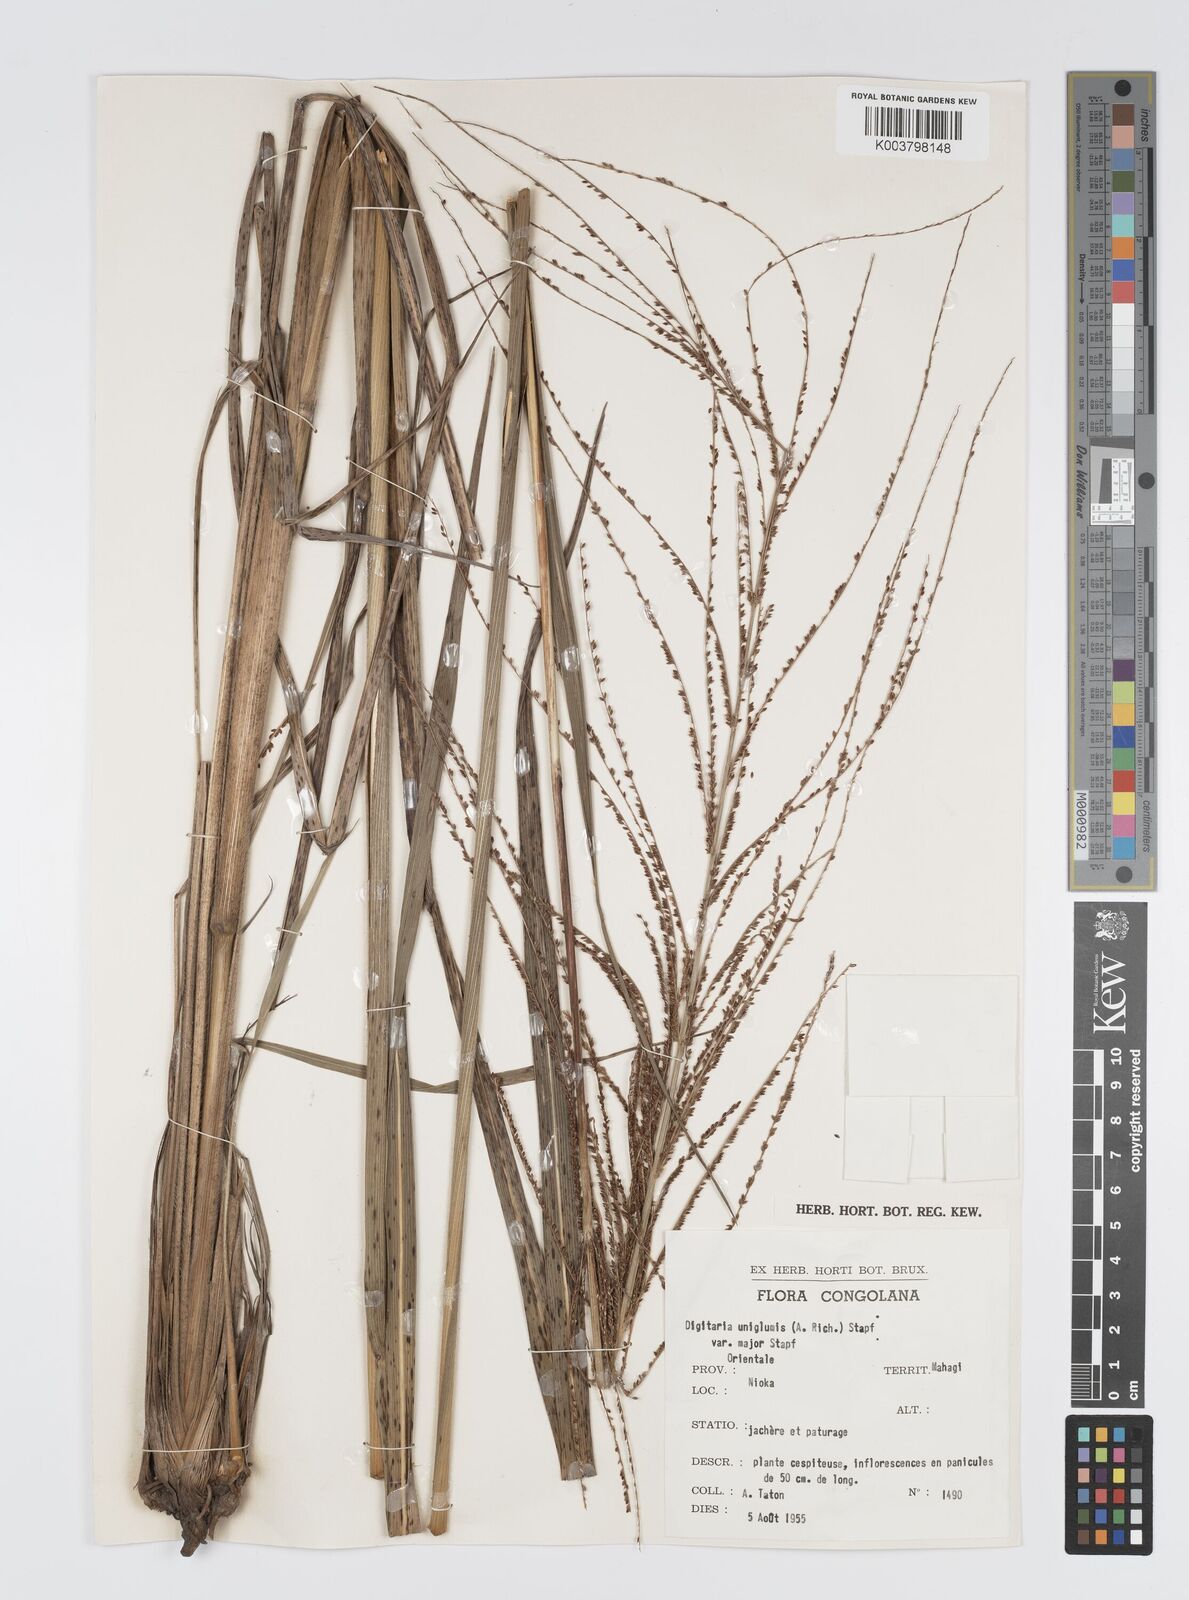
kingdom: Plantae
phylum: Tracheophyta
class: Liliopsida
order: Poales
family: Poaceae
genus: Digitaria
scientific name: Digitaria diagonalis
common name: Brown-seed finger grass
